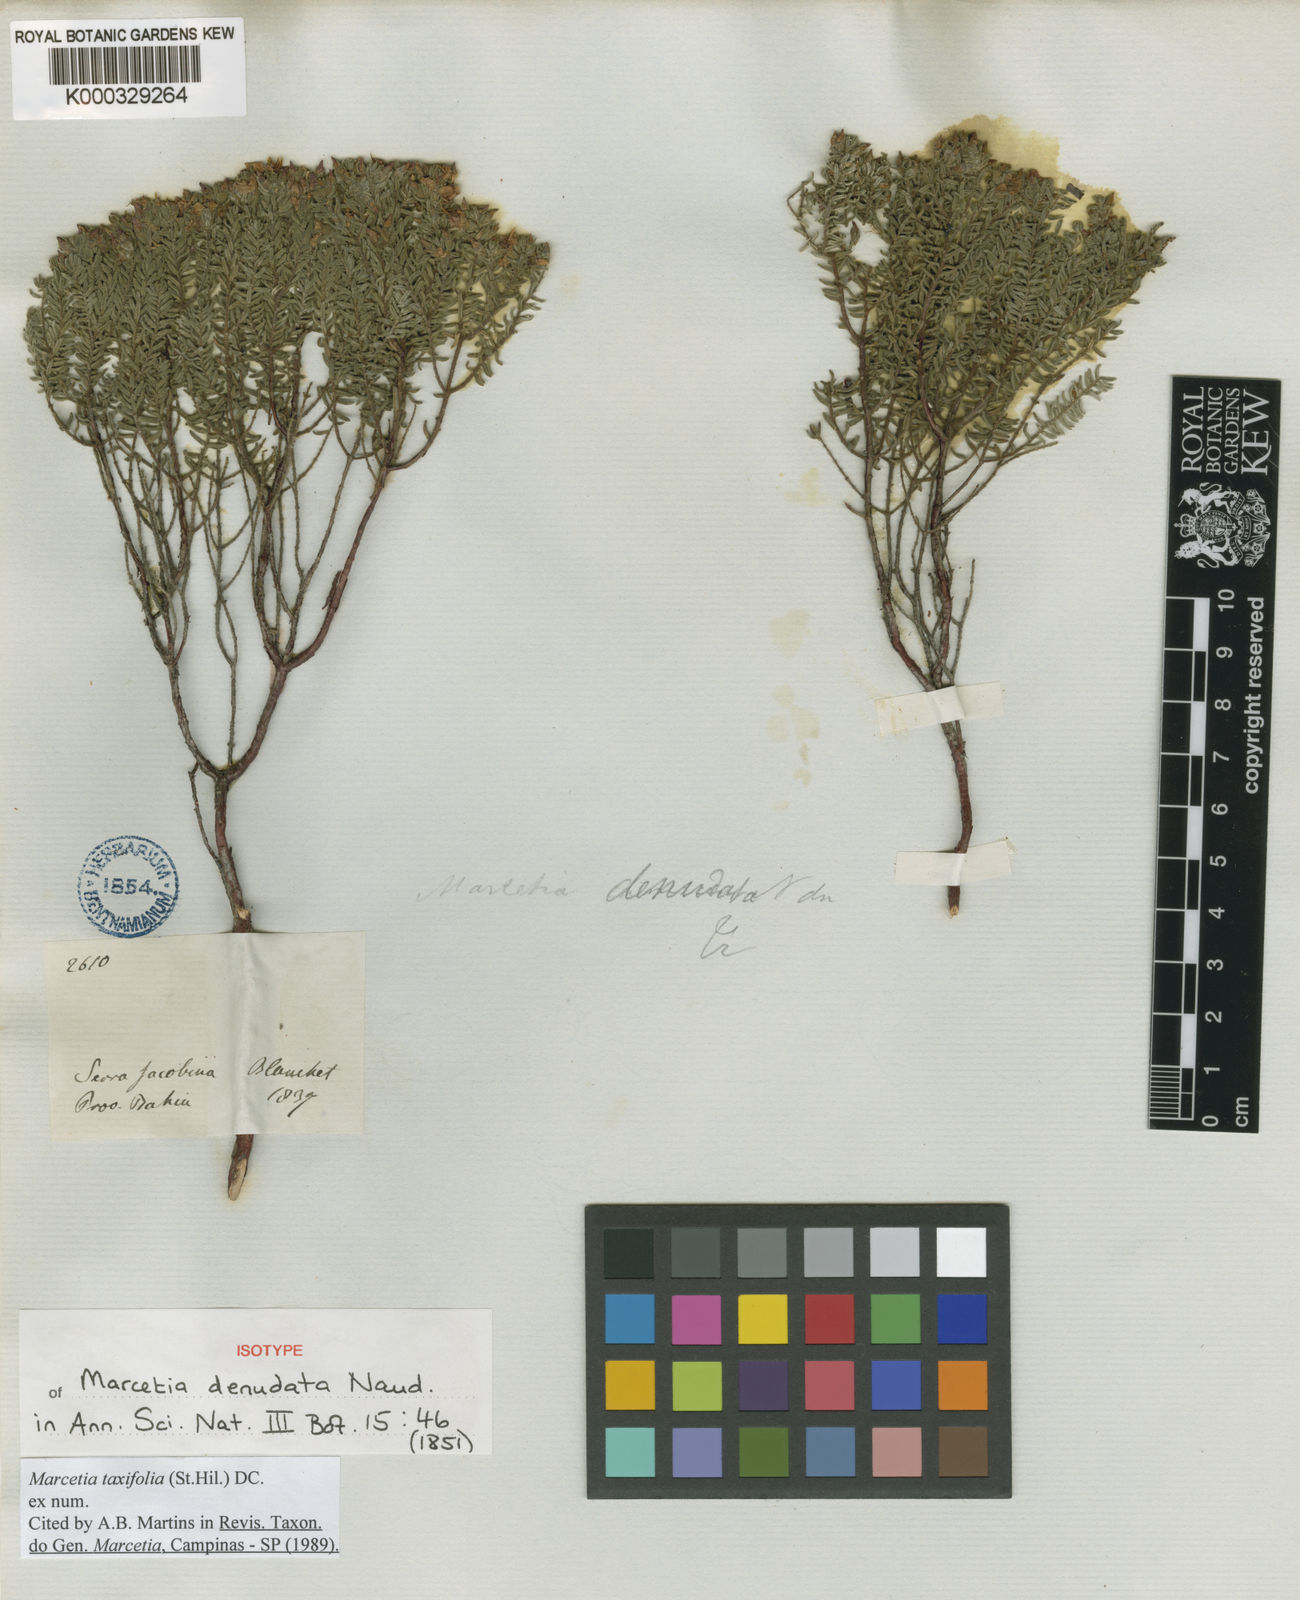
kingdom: Plantae
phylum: Tracheophyta
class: Magnoliopsida
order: Myrtales
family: Melastomataceae
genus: Marcetia
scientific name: Marcetia taxifolia
